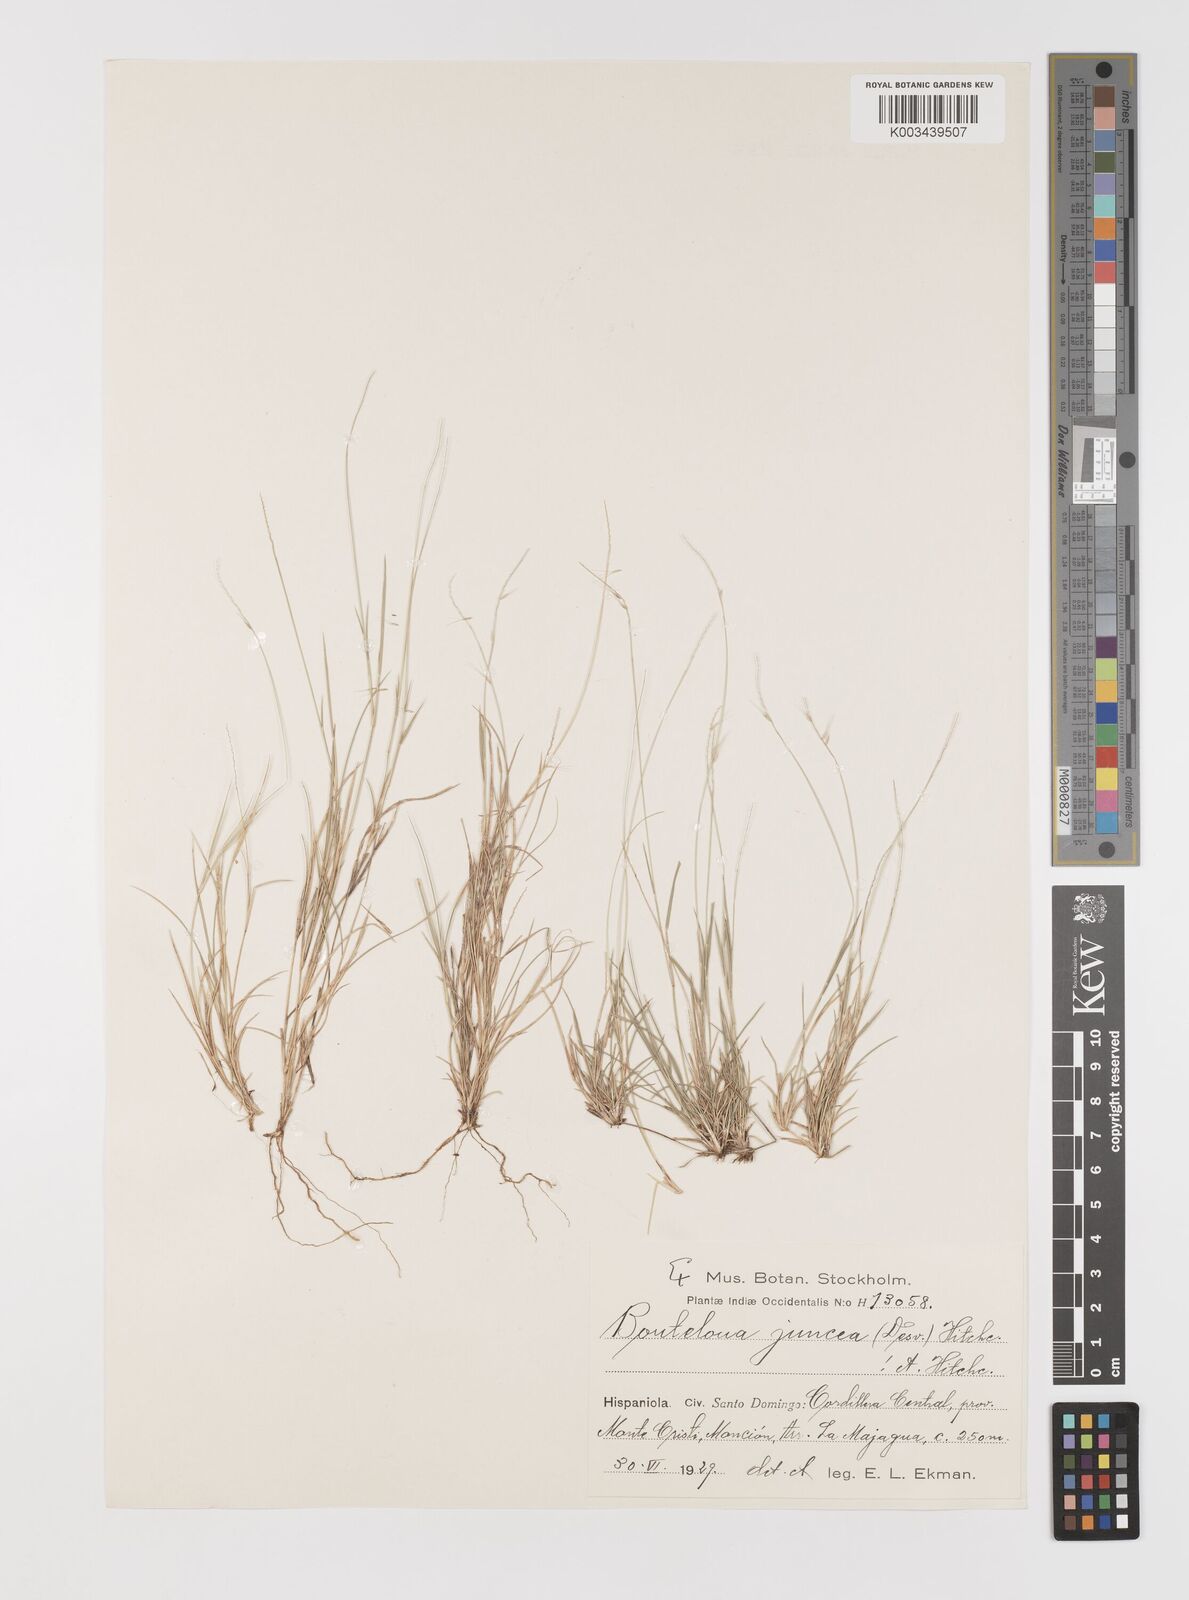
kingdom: Plantae
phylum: Tracheophyta
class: Liliopsida
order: Poales
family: Poaceae
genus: Bouteloua
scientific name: Bouteloua juncea
